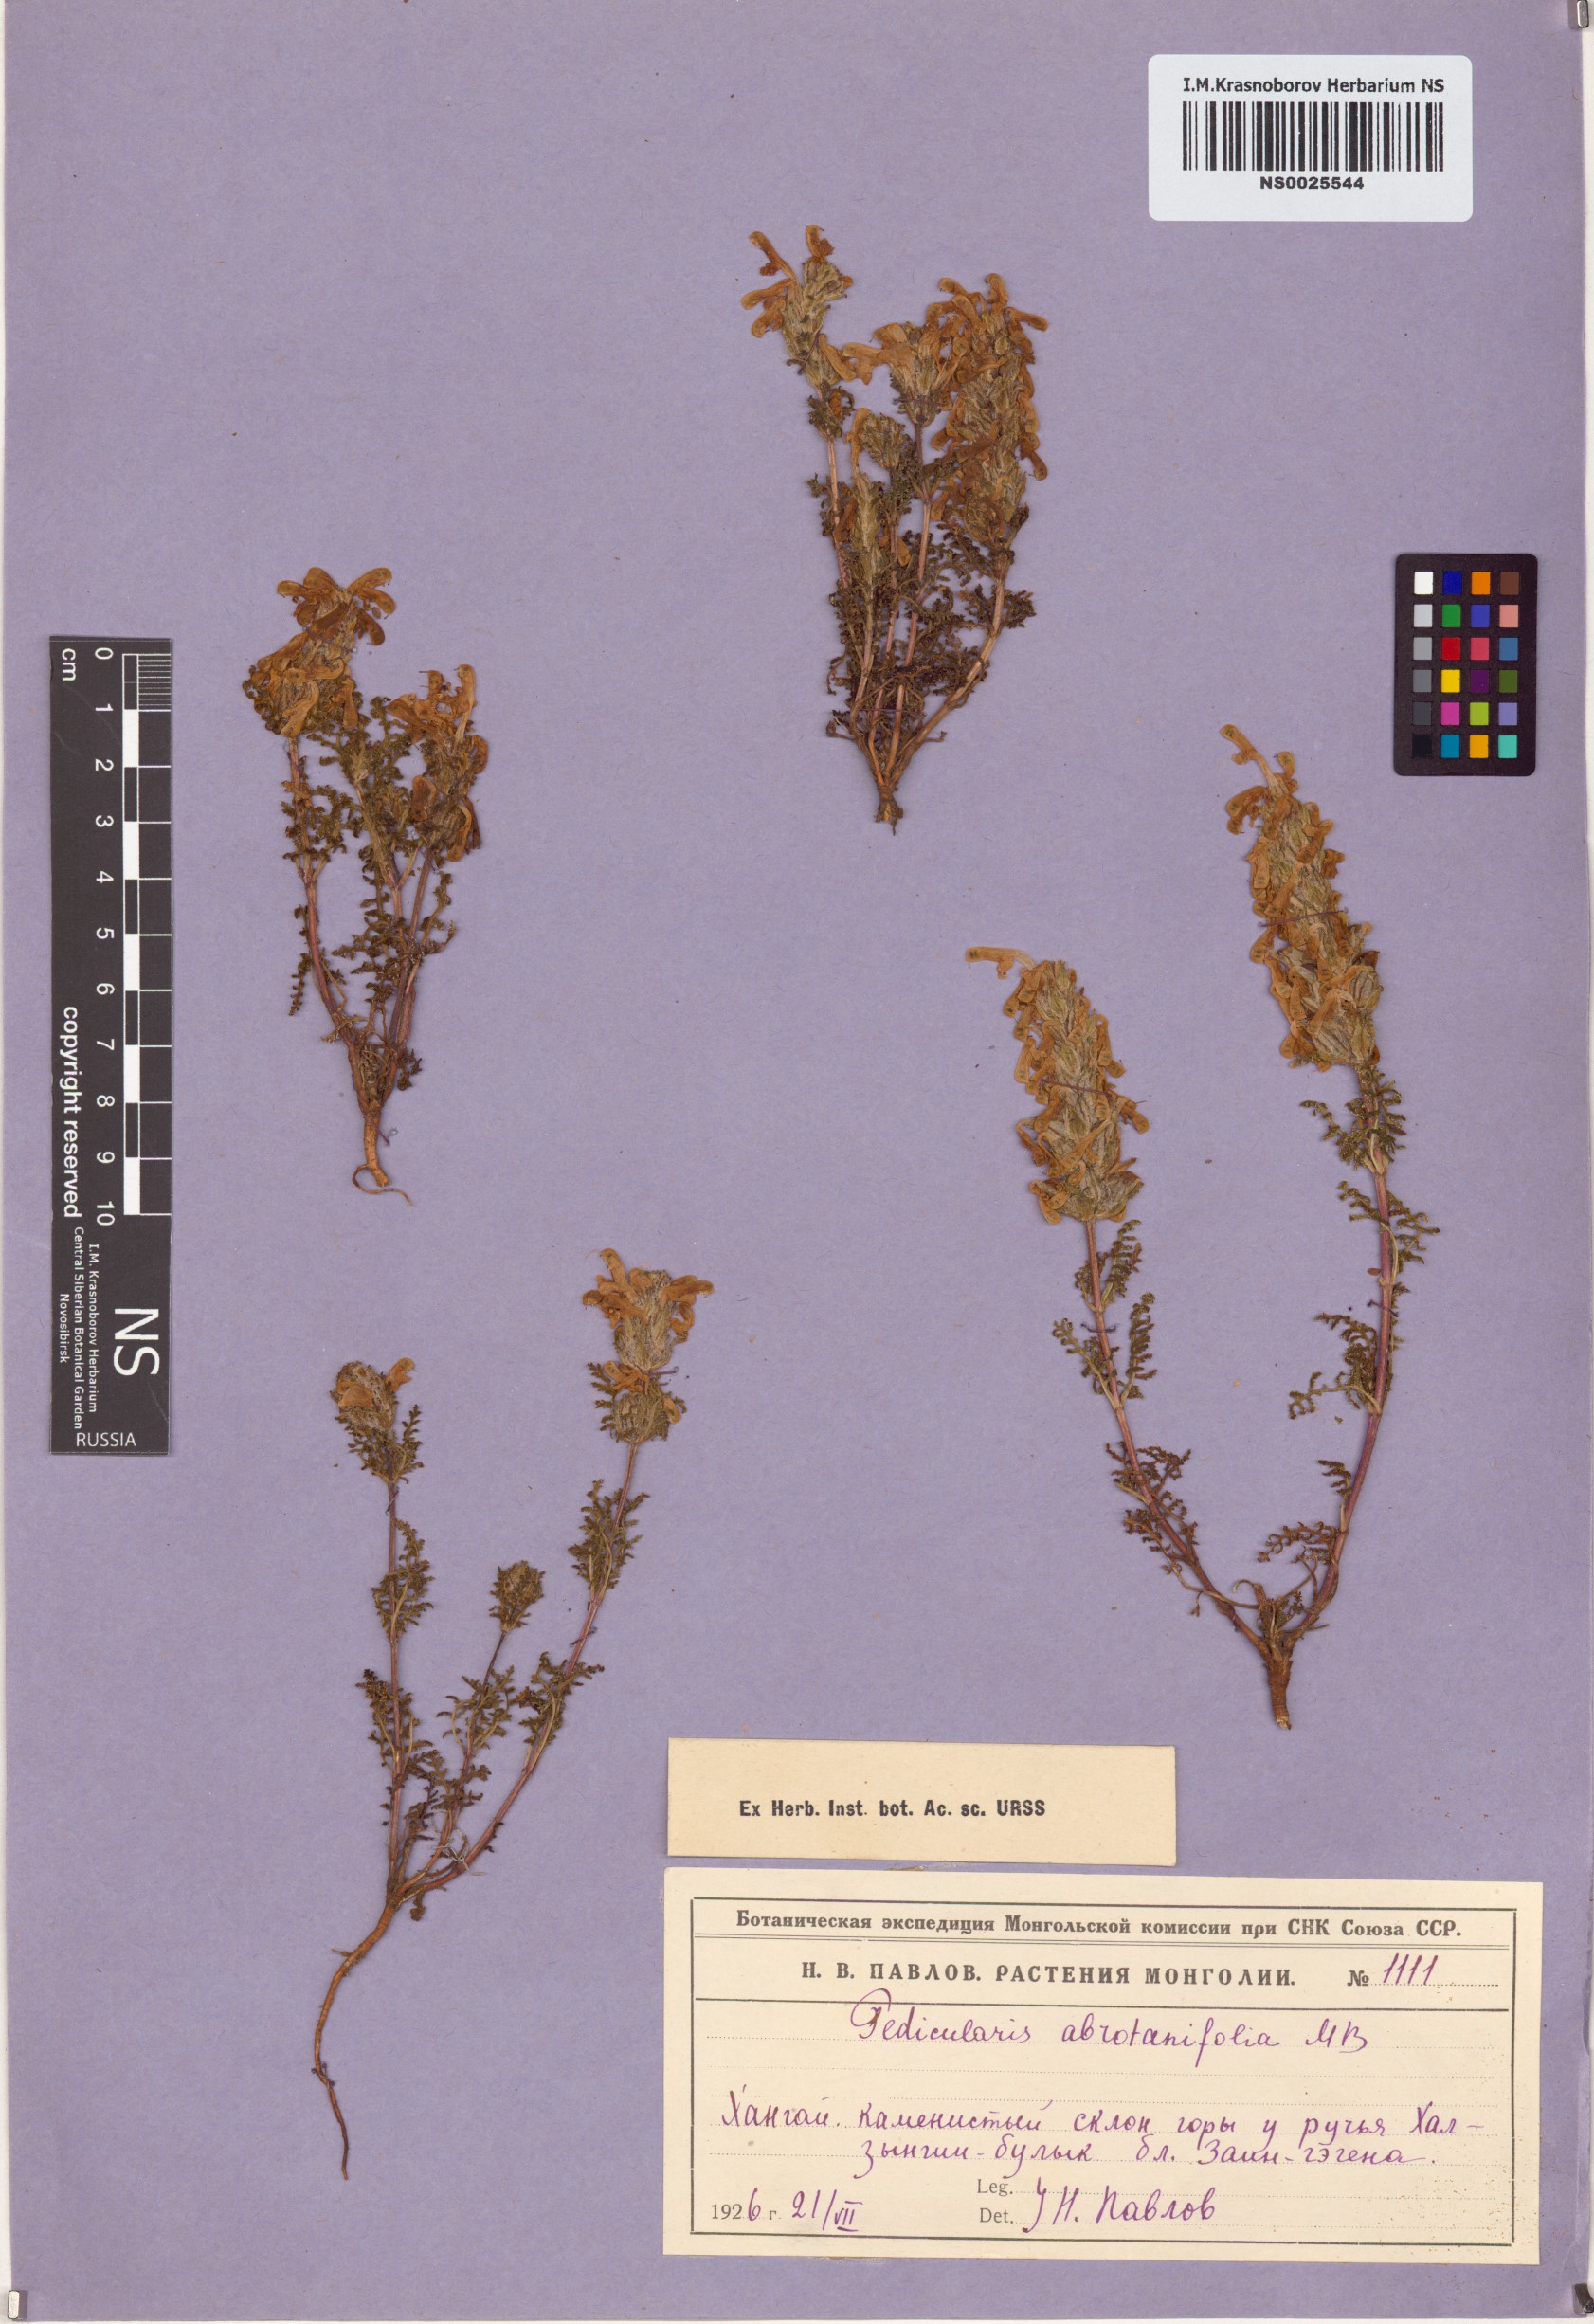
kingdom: Plantae
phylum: Tracheophyta
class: Magnoliopsida
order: Lamiales
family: Orobanchaceae
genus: Pedicularis
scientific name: Pedicularis abrotanifolia
